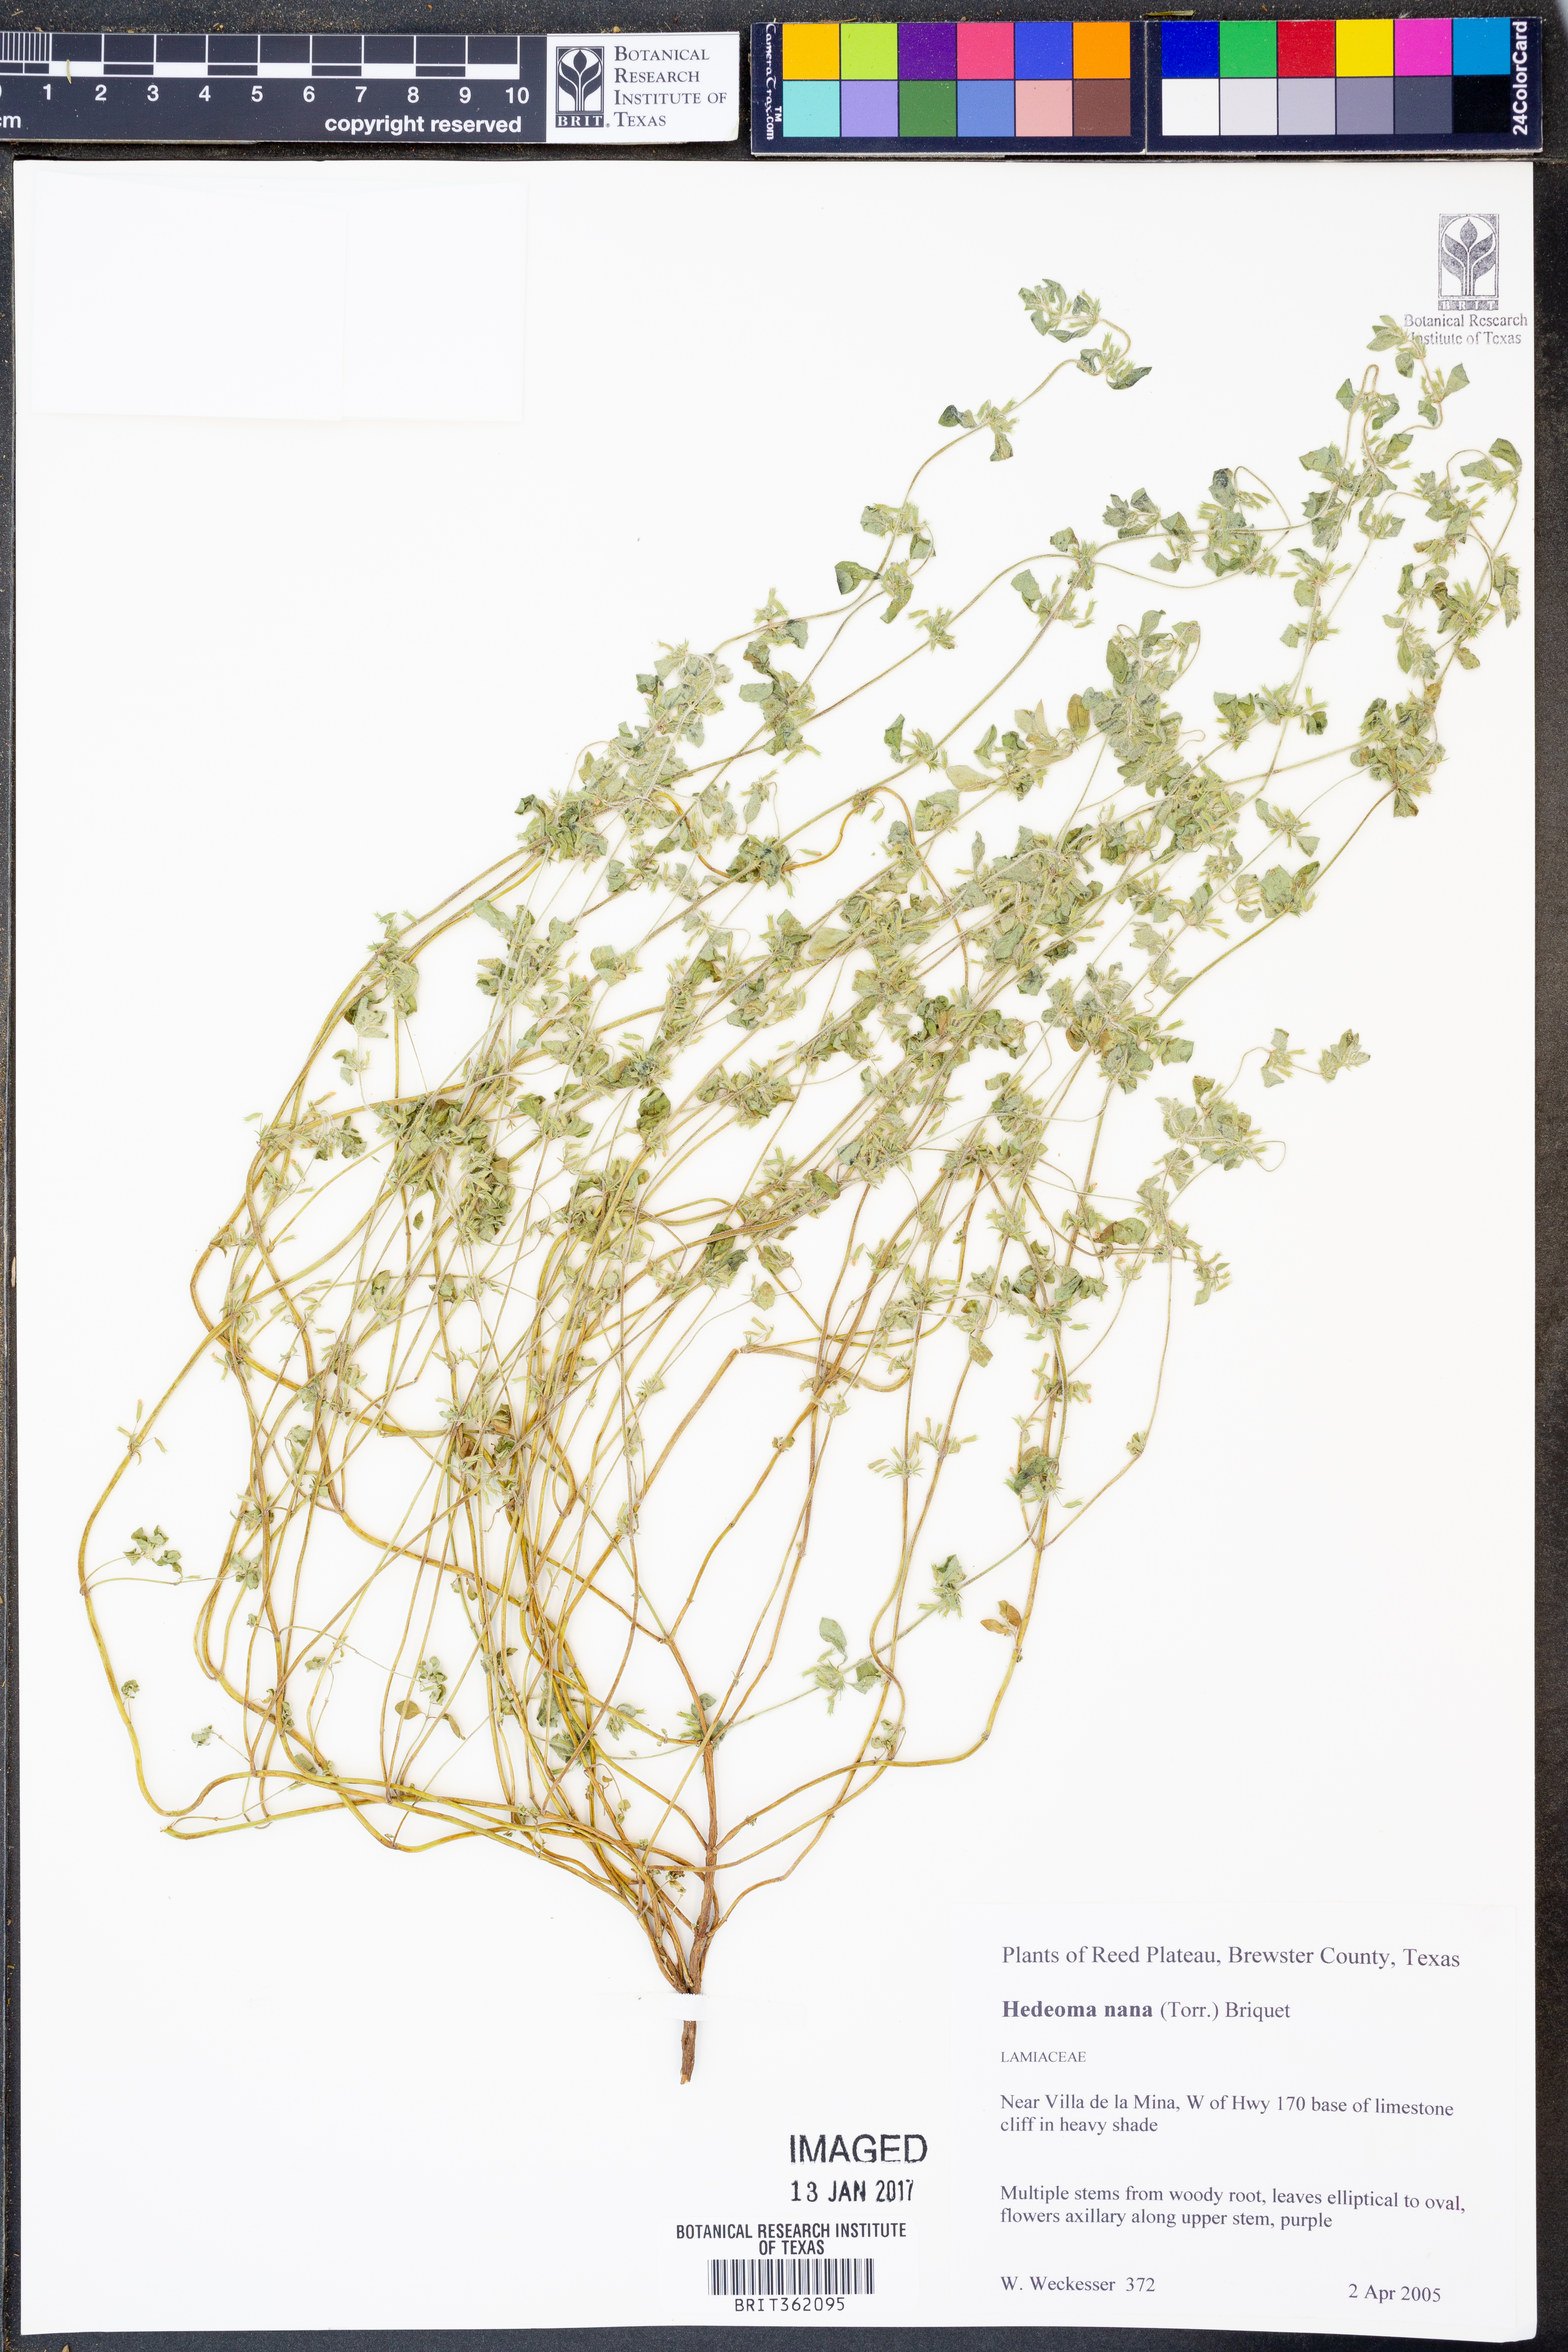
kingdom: Plantae
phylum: Tracheophyta
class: Magnoliopsida
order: Lamiales
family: Lamiaceae
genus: Hedeoma
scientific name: Hedeoma nana
